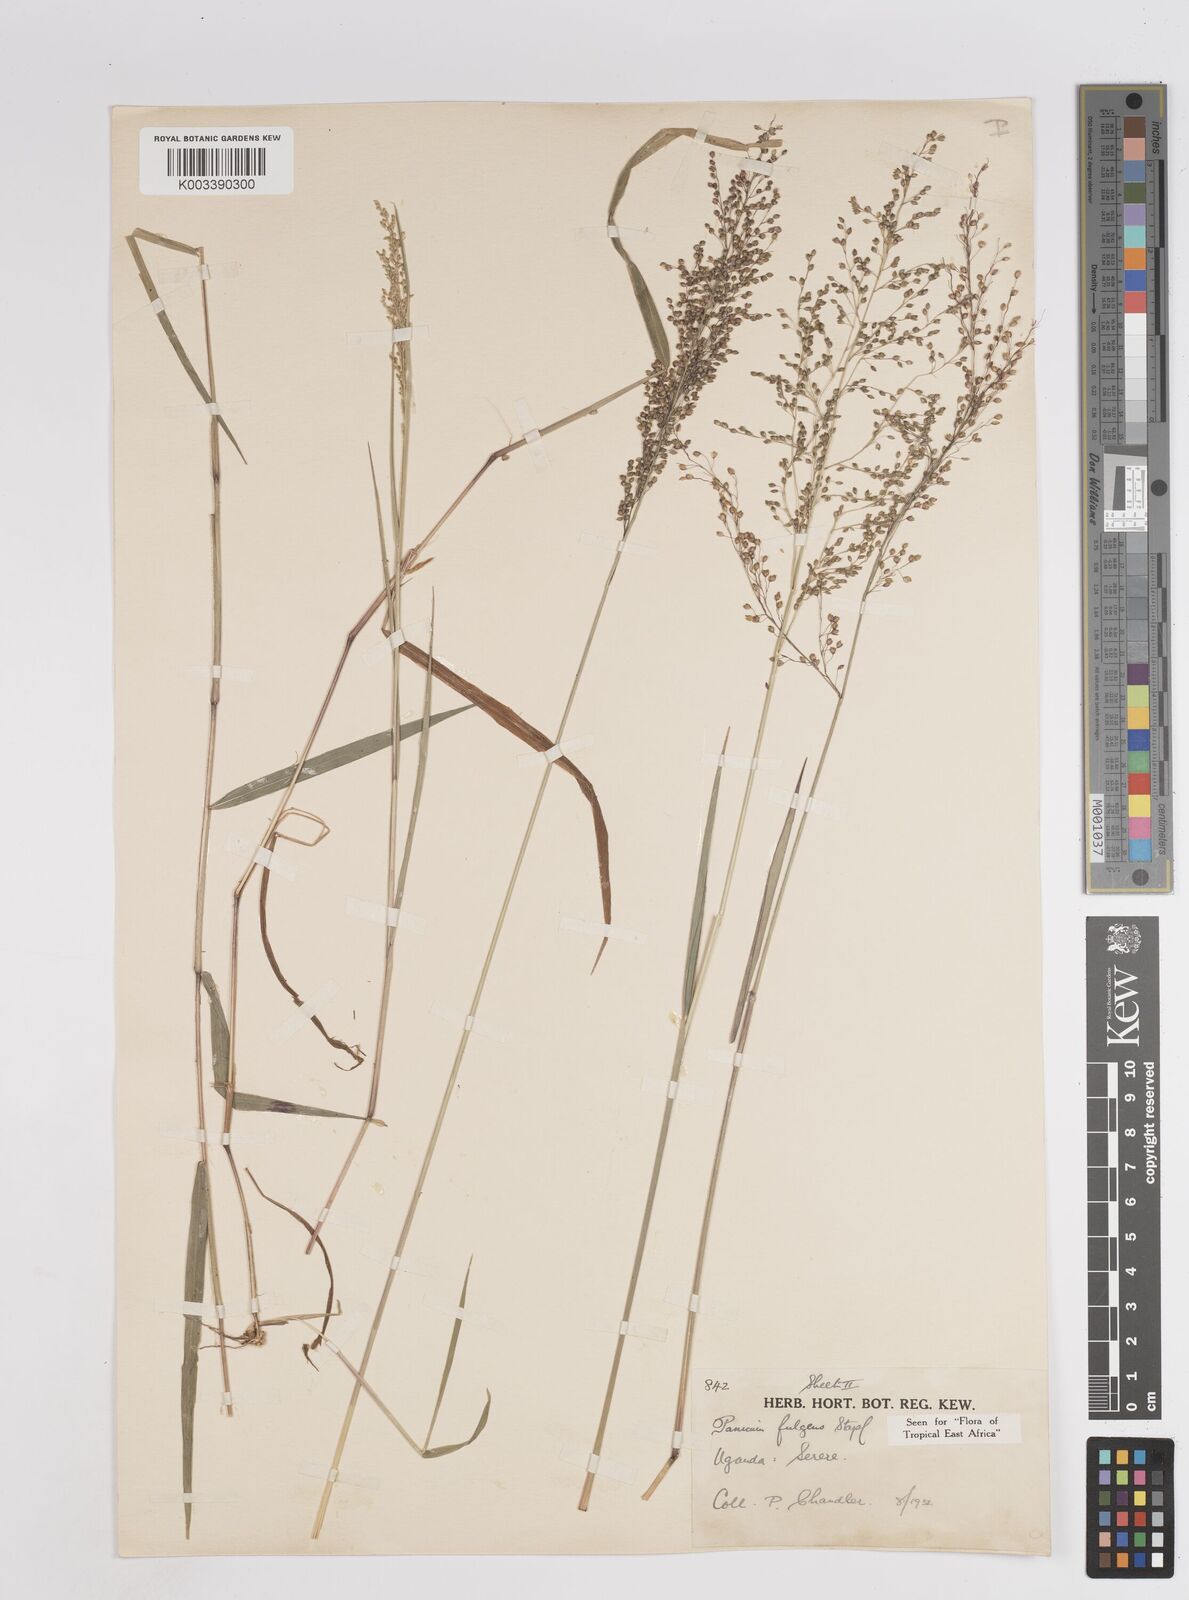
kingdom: Plantae
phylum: Tracheophyta
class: Liliopsida
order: Poales
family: Poaceae
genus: Trichanthecium
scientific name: Trichanthecium nervatum
